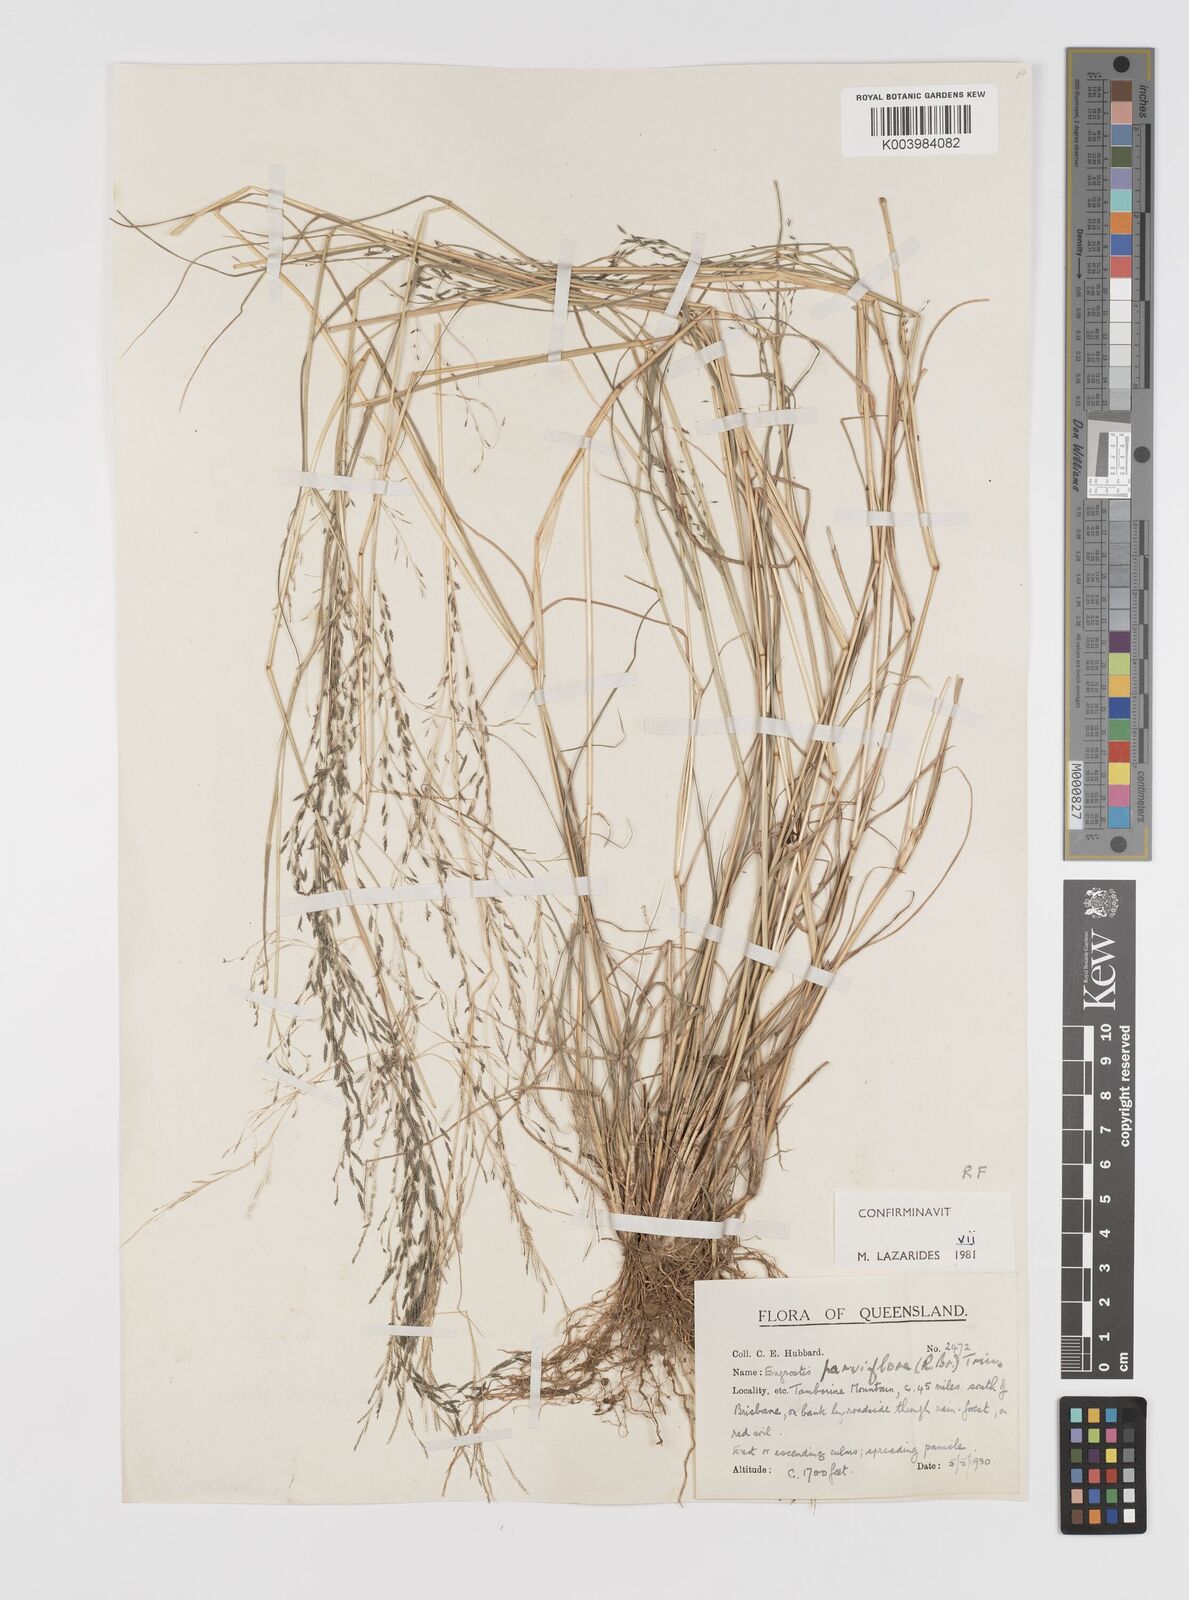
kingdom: Plantae
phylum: Tracheophyta
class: Liliopsida
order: Poales
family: Poaceae
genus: Eragrostis
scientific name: Eragrostis parviflora
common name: Weeping love-grass
